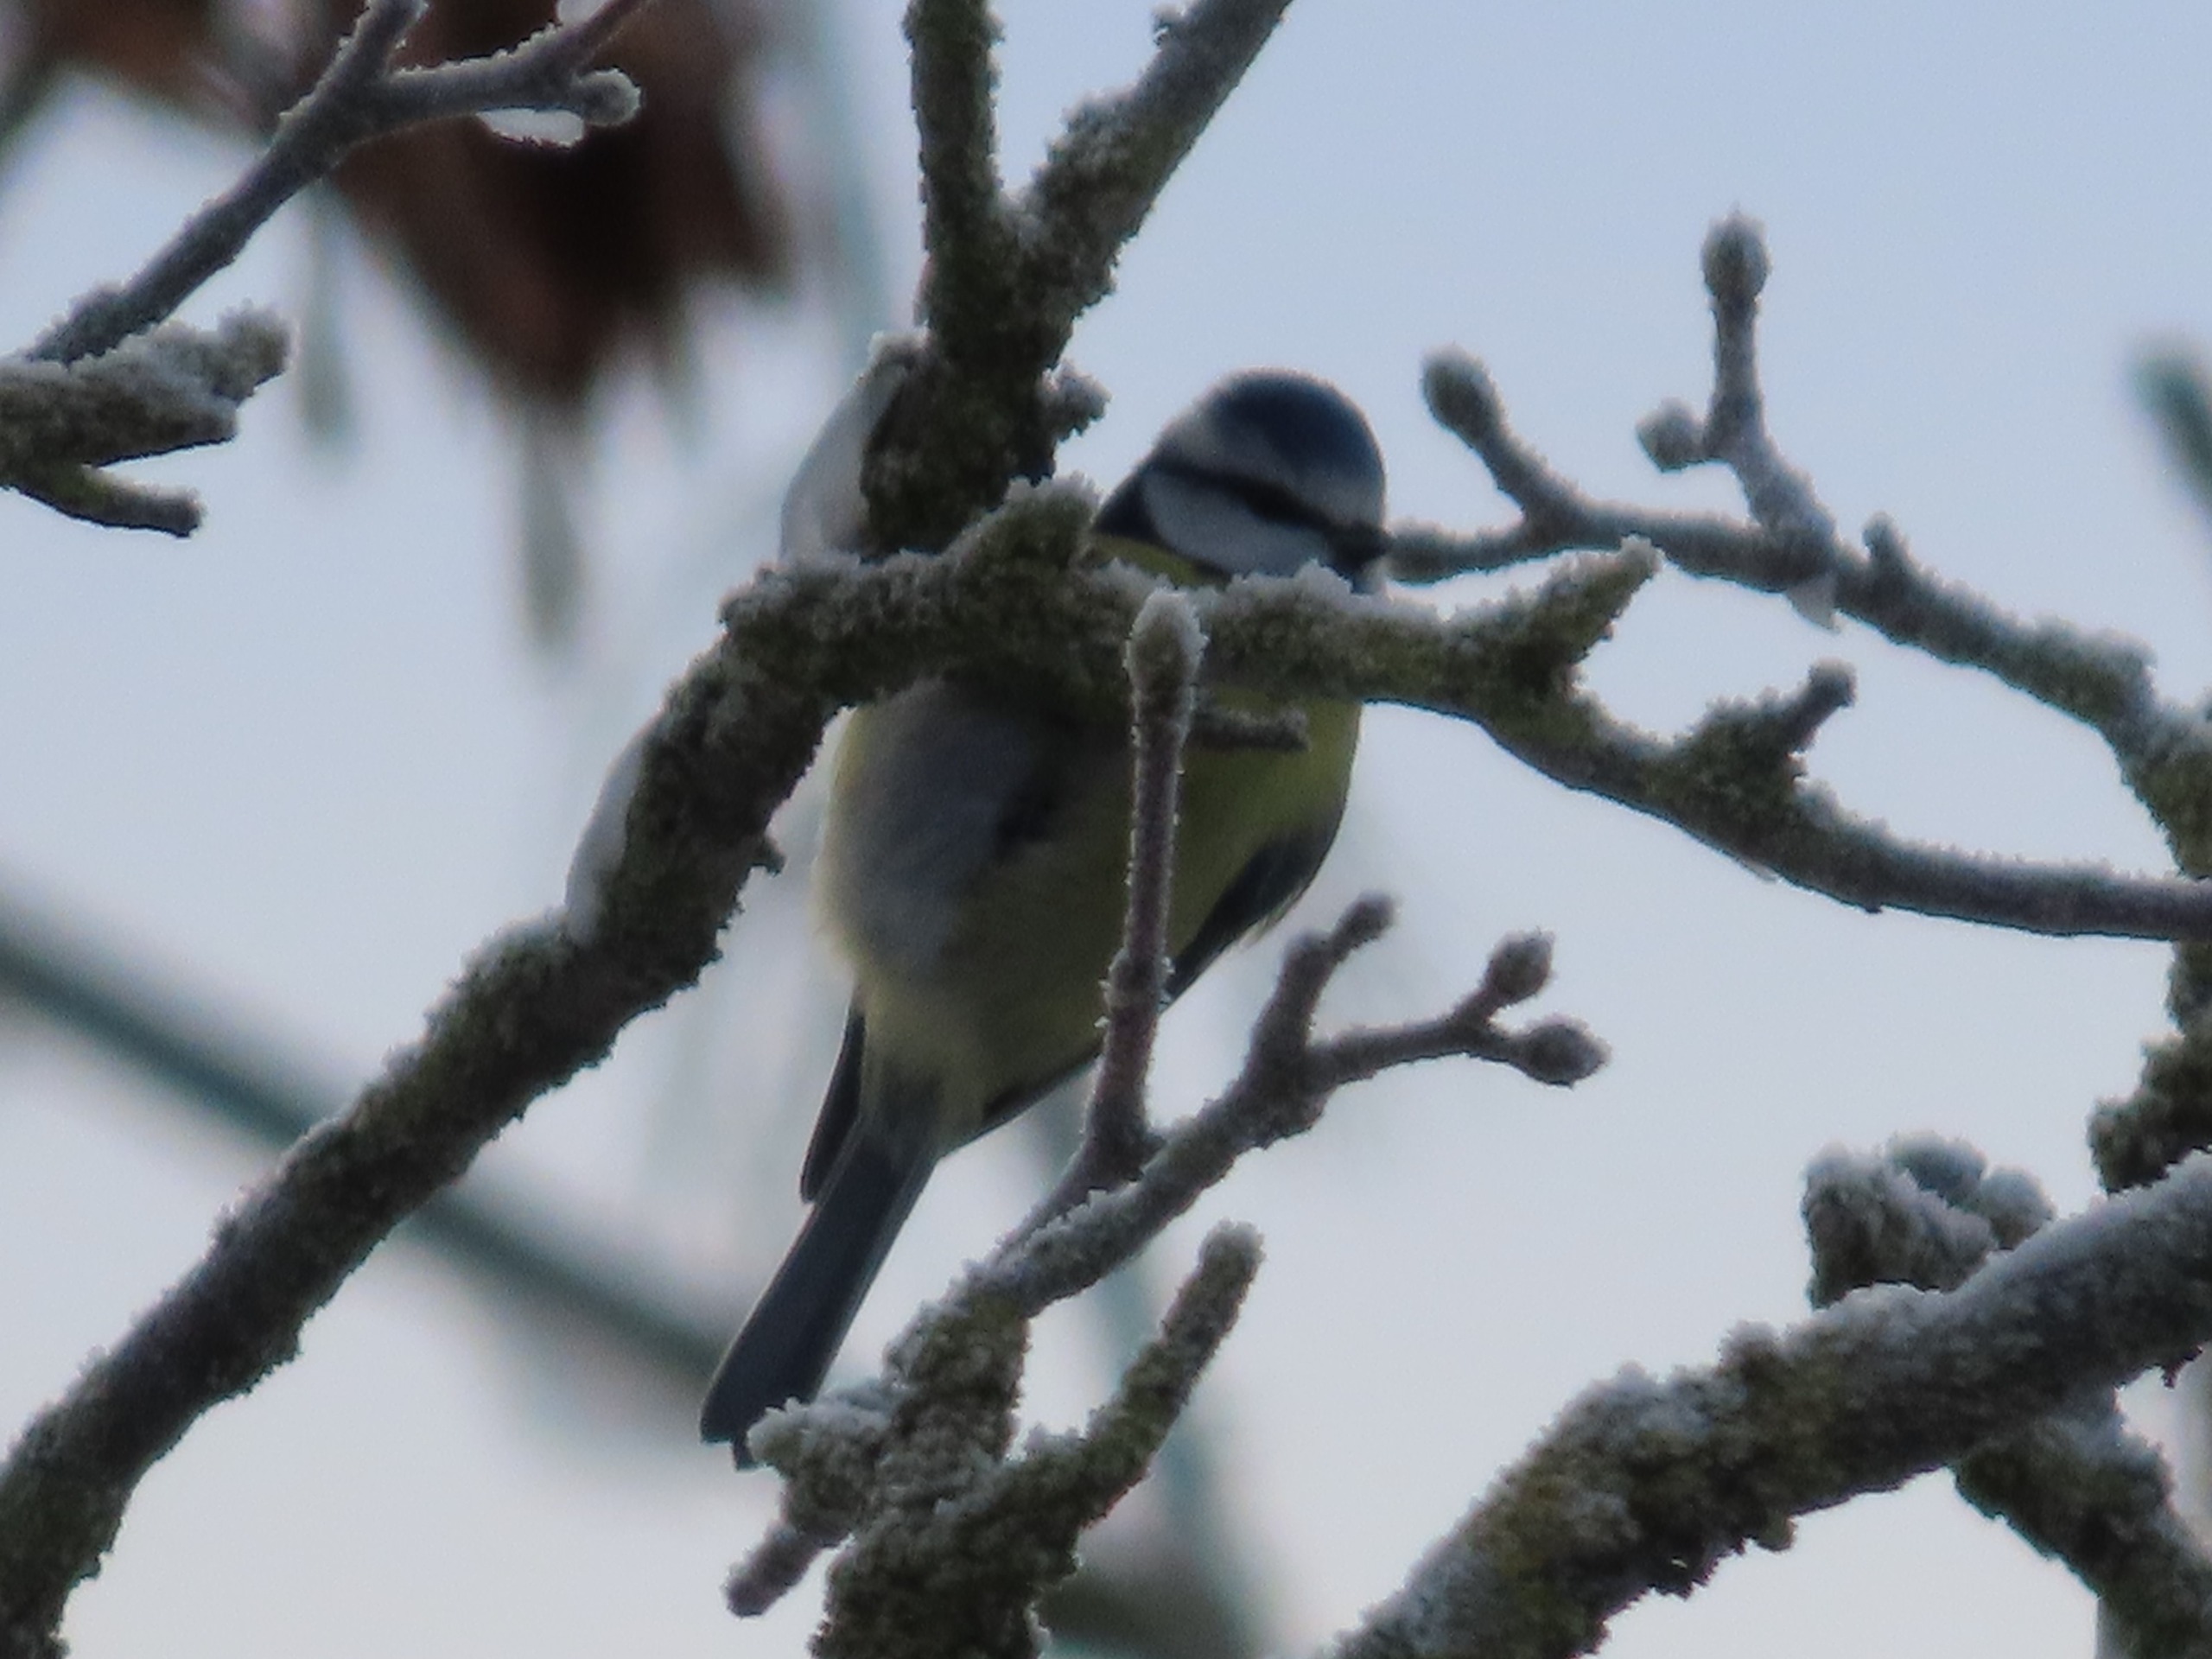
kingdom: Animalia
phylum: Chordata
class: Aves
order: Passeriformes
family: Paridae
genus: Cyanistes
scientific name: Cyanistes caeruleus
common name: Blåmejse
